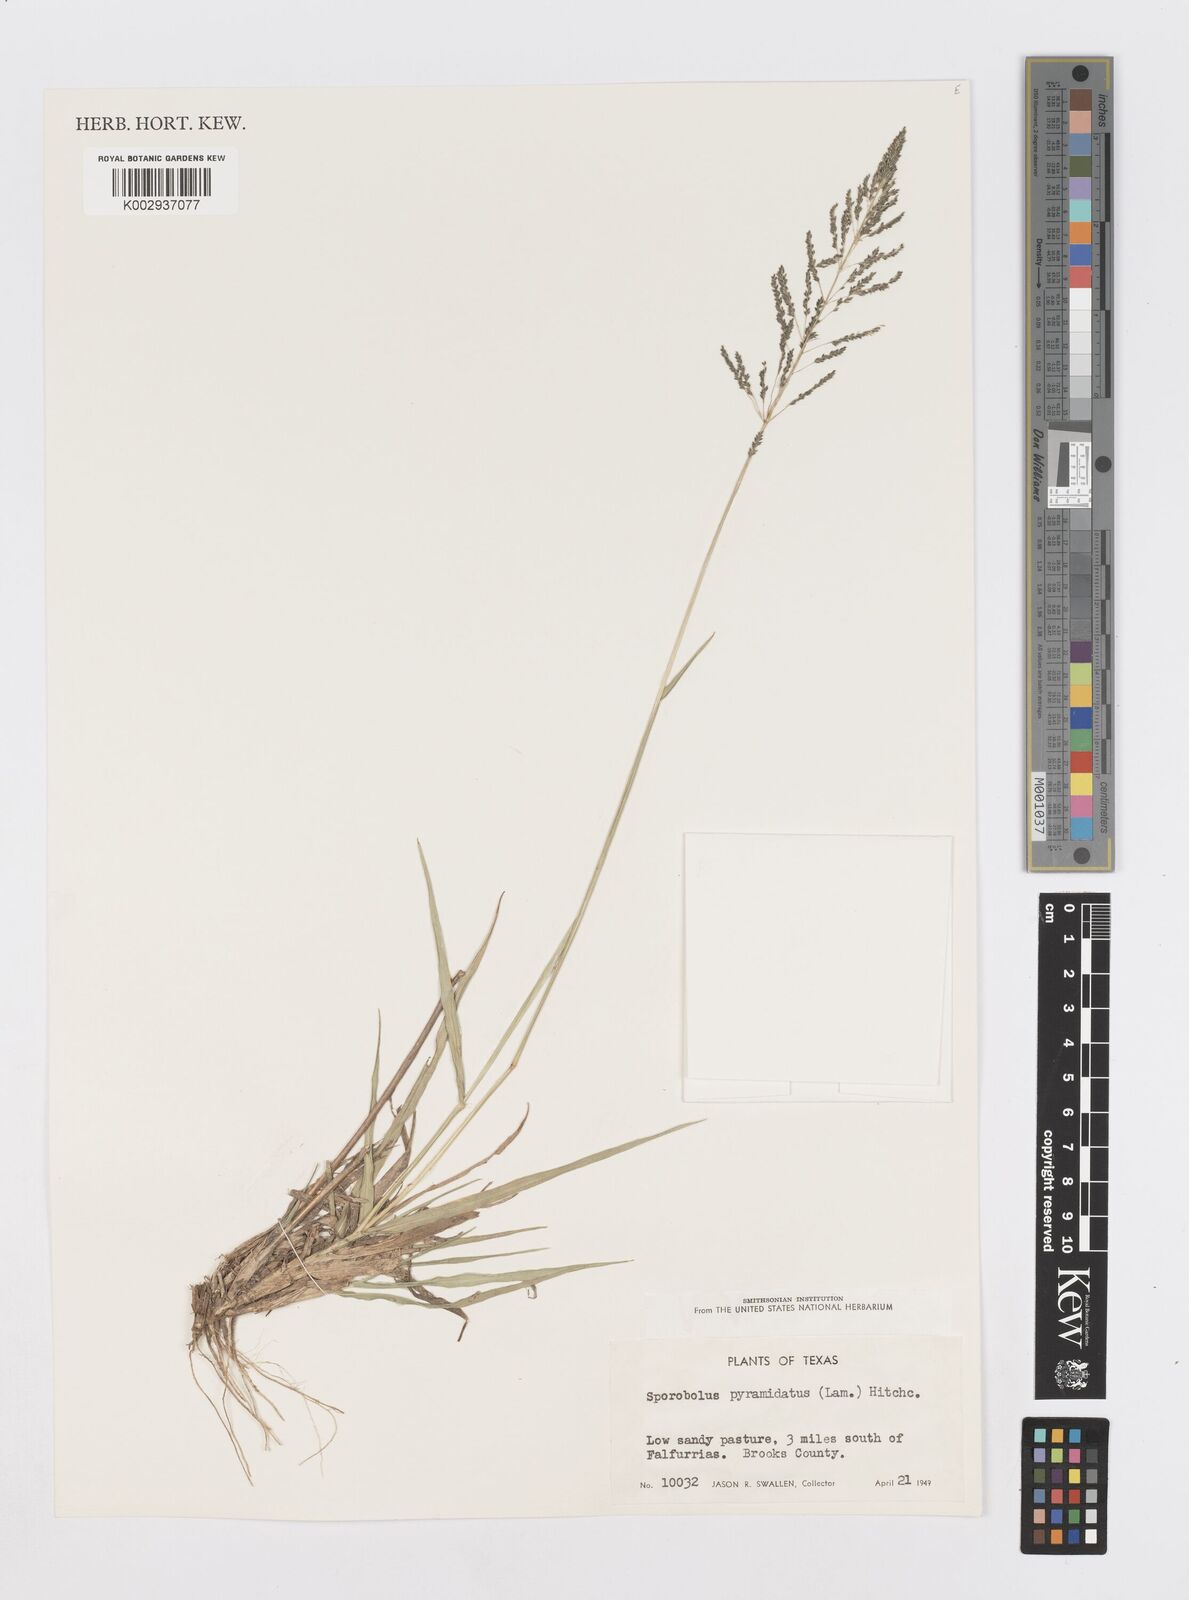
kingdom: Plantae
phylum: Tracheophyta
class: Liliopsida
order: Poales
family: Poaceae
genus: Sporobolus
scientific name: Sporobolus pyramidatus
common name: Whorled dropseed
